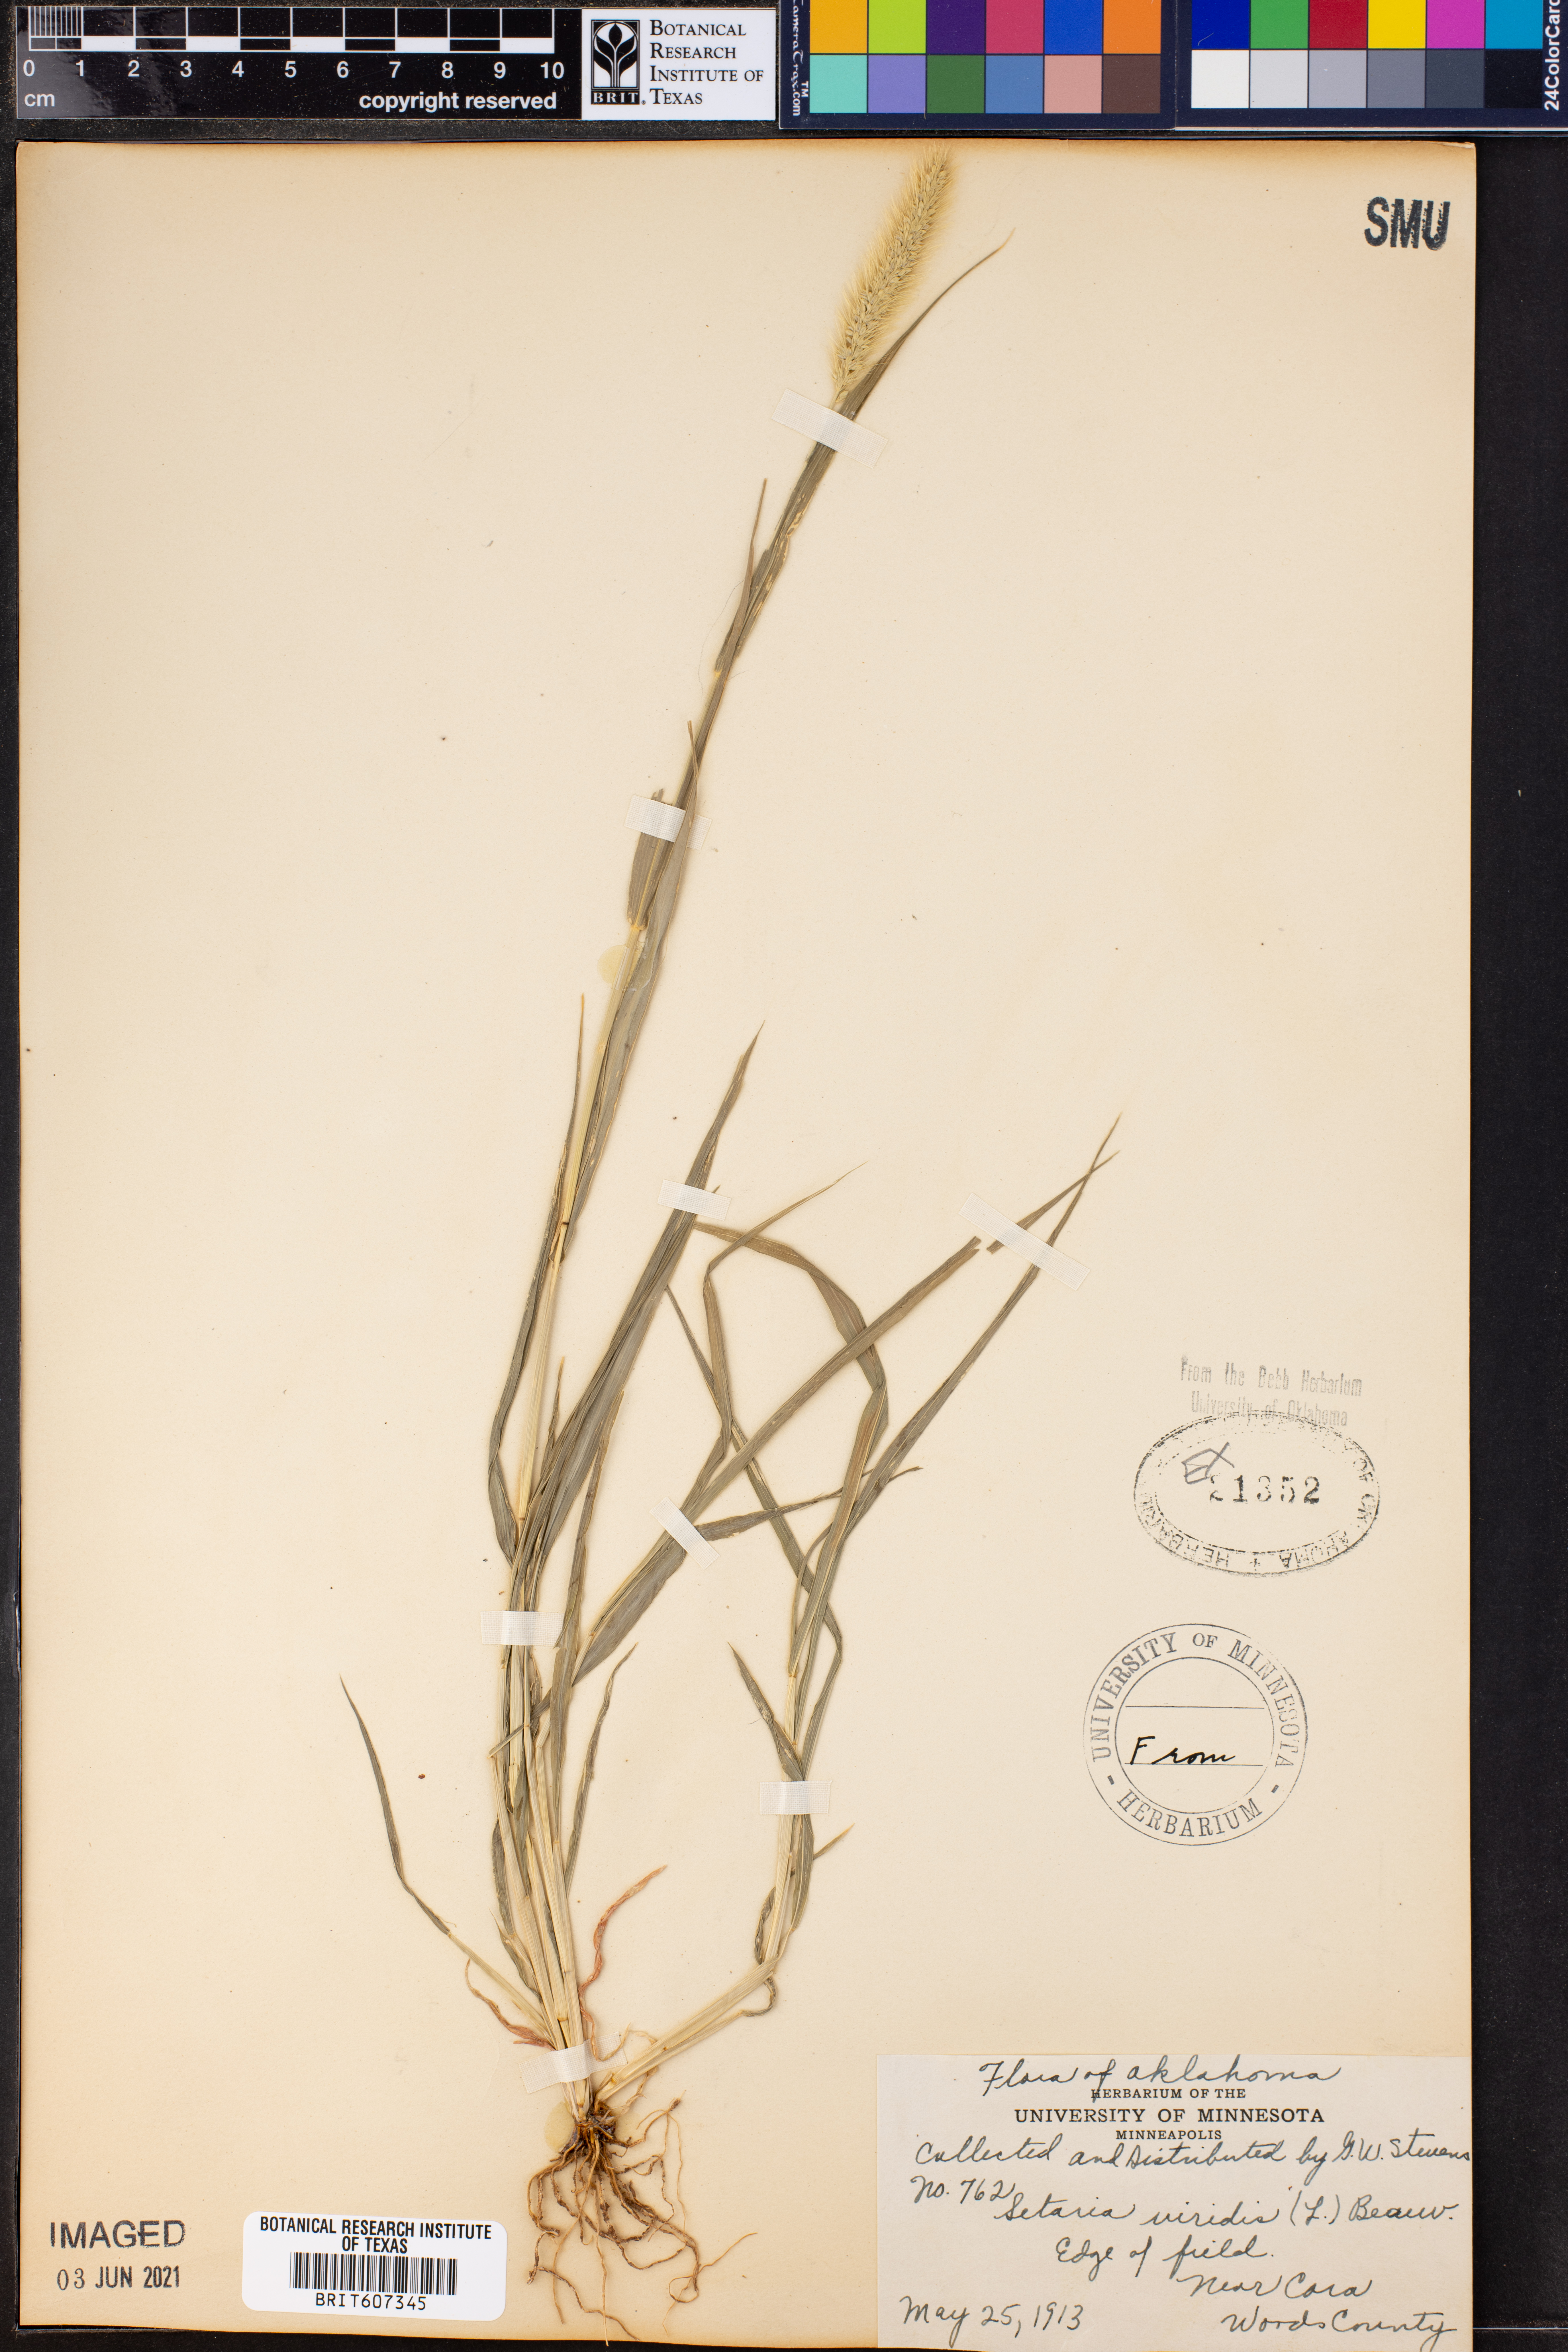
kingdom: Plantae
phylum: Tracheophyta
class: Liliopsida
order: Poales
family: Poaceae
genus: Setaria
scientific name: Setaria viridis
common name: Green bristlegrass
